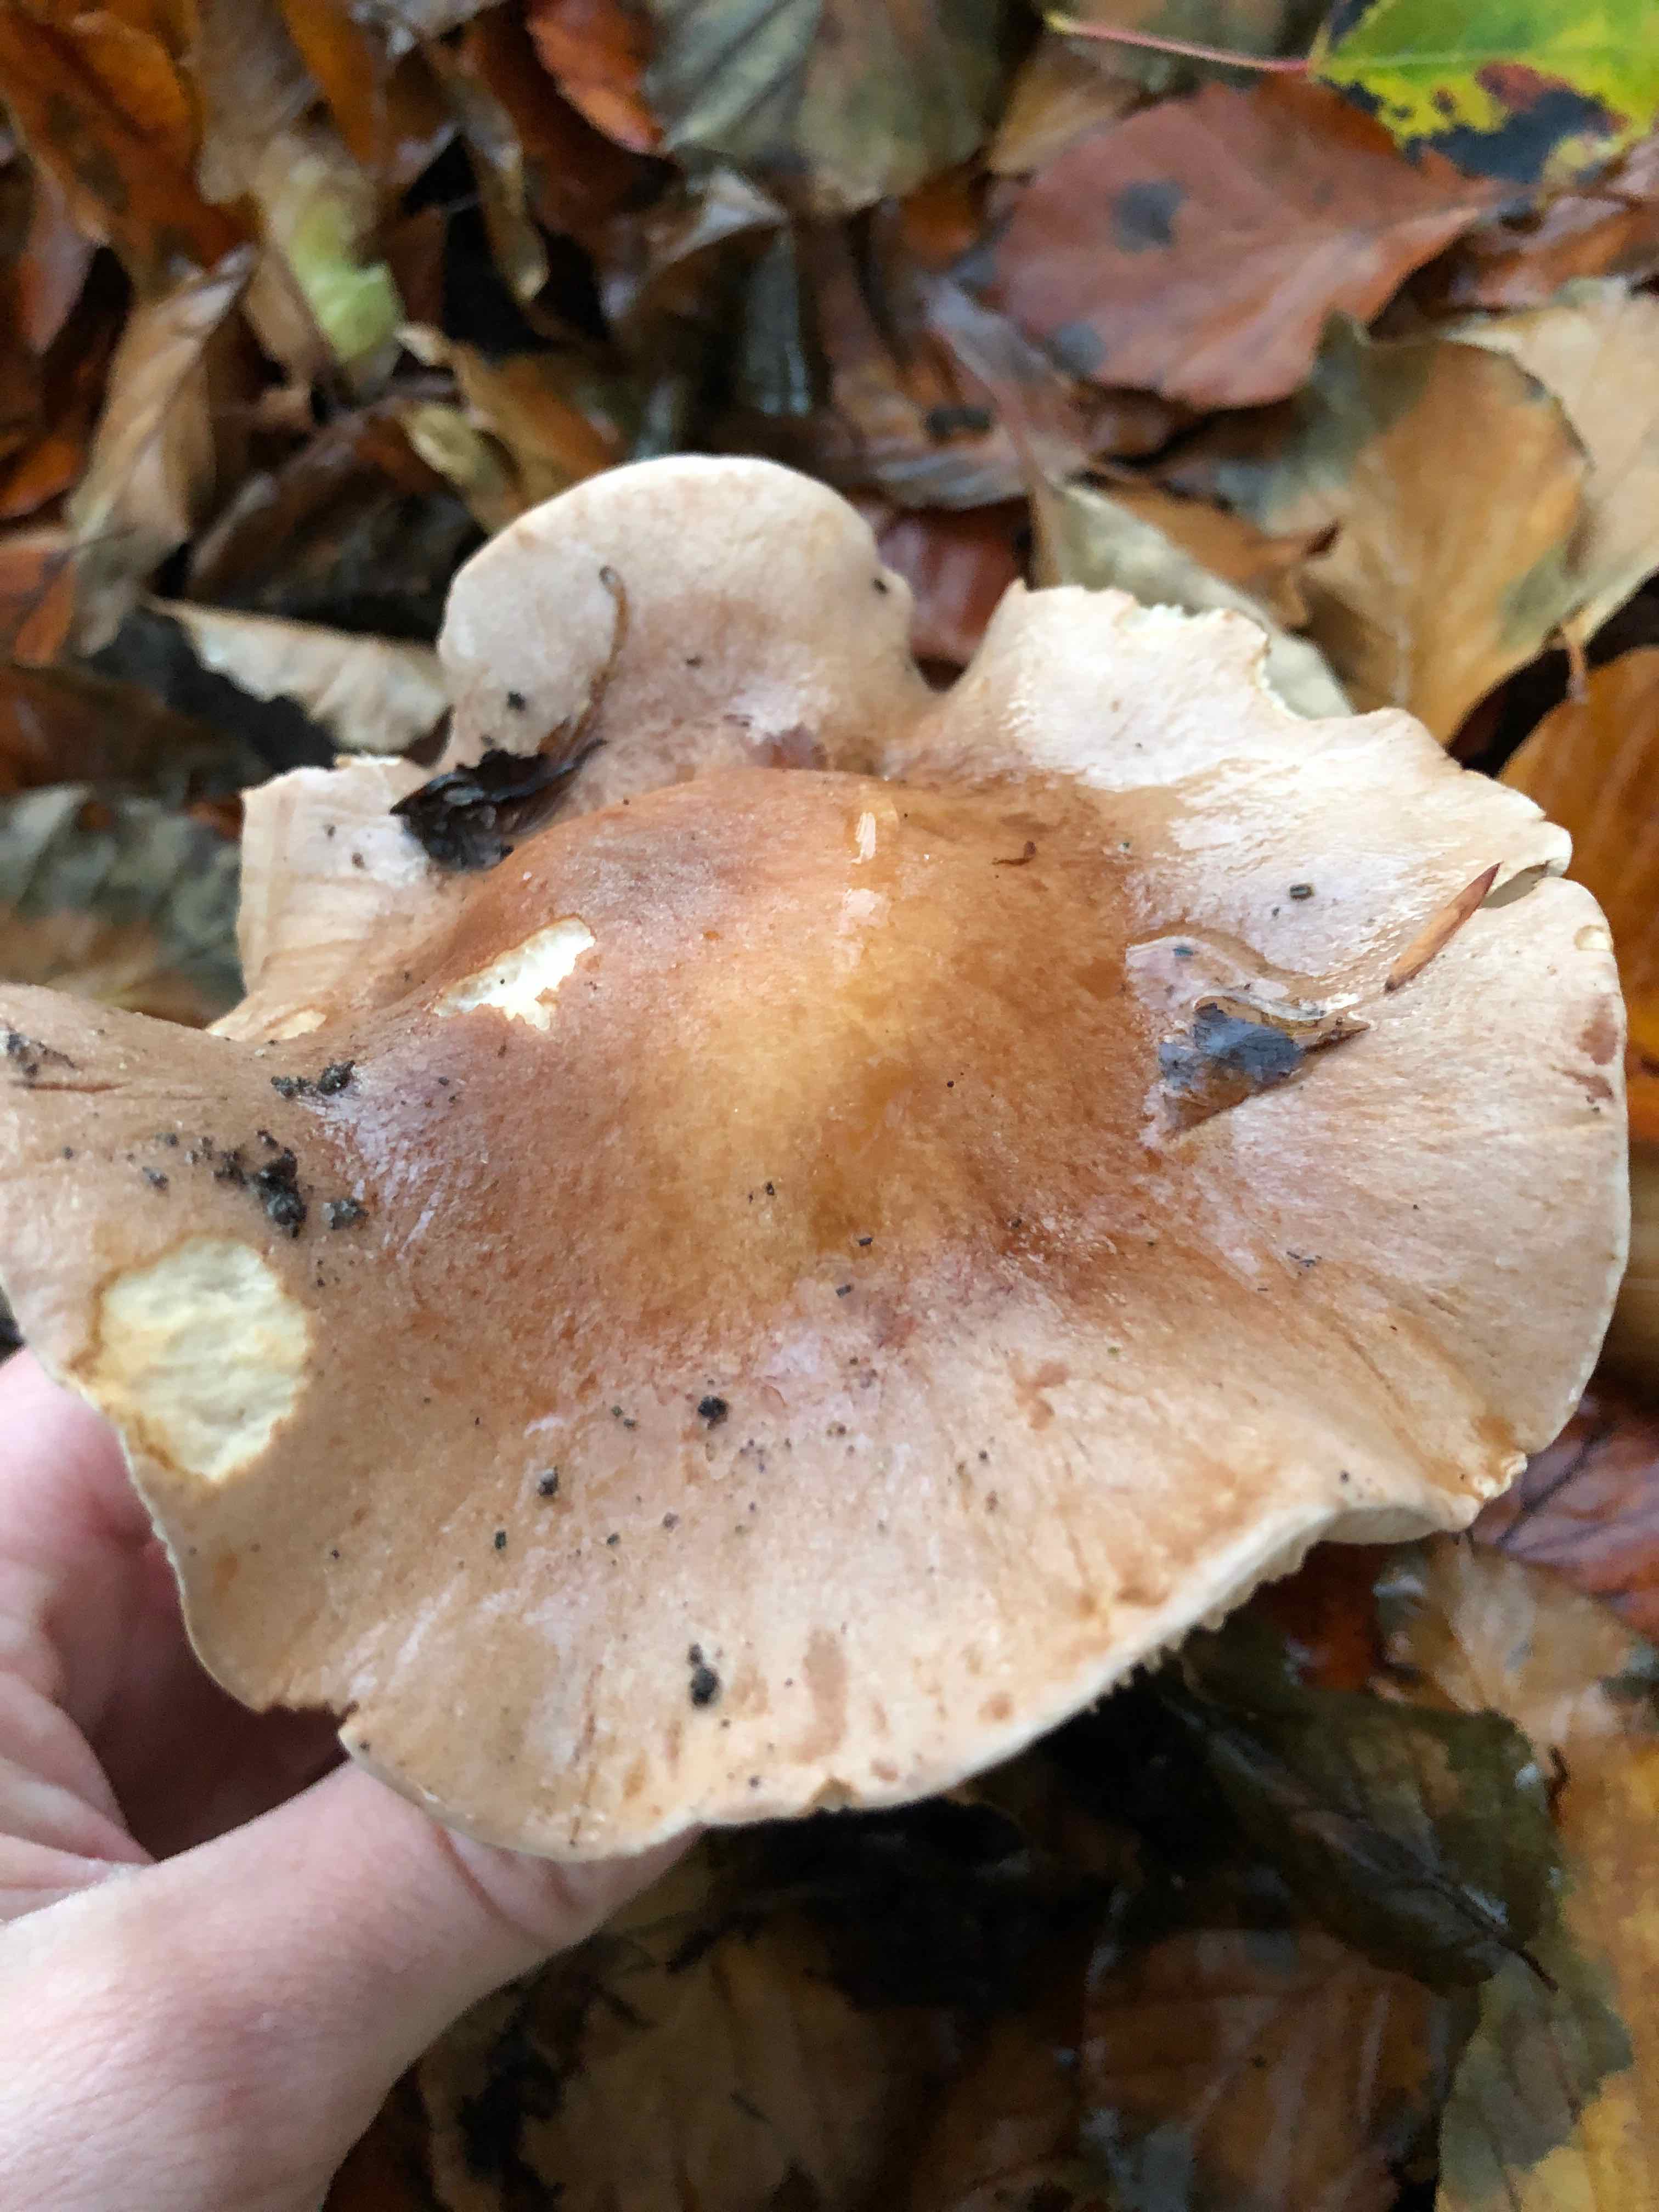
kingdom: Fungi
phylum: Basidiomycota
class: Agaricomycetes
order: Agaricales
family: Hymenogastraceae
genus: Hebeloma
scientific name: Hebeloma
